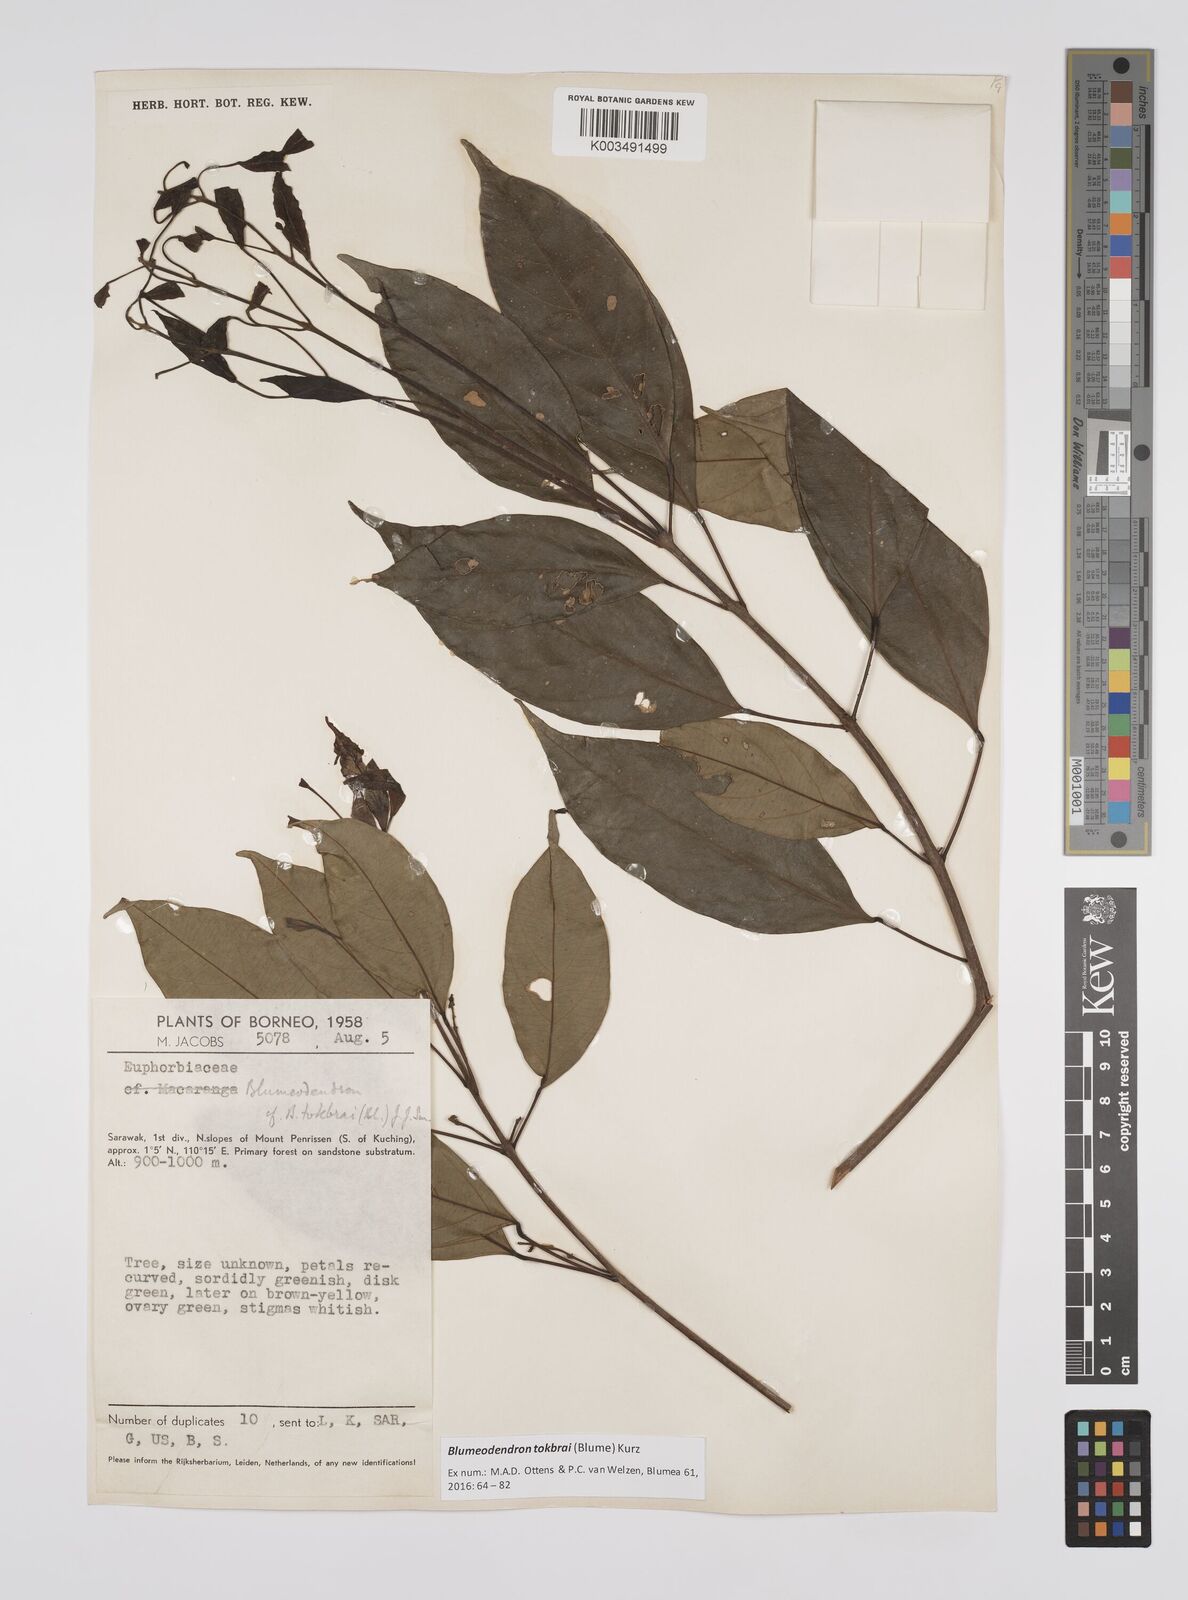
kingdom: Plantae
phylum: Tracheophyta
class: Magnoliopsida
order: Malpighiales
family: Euphorbiaceae
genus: Blumeodendron
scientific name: Blumeodendron tokbrai
